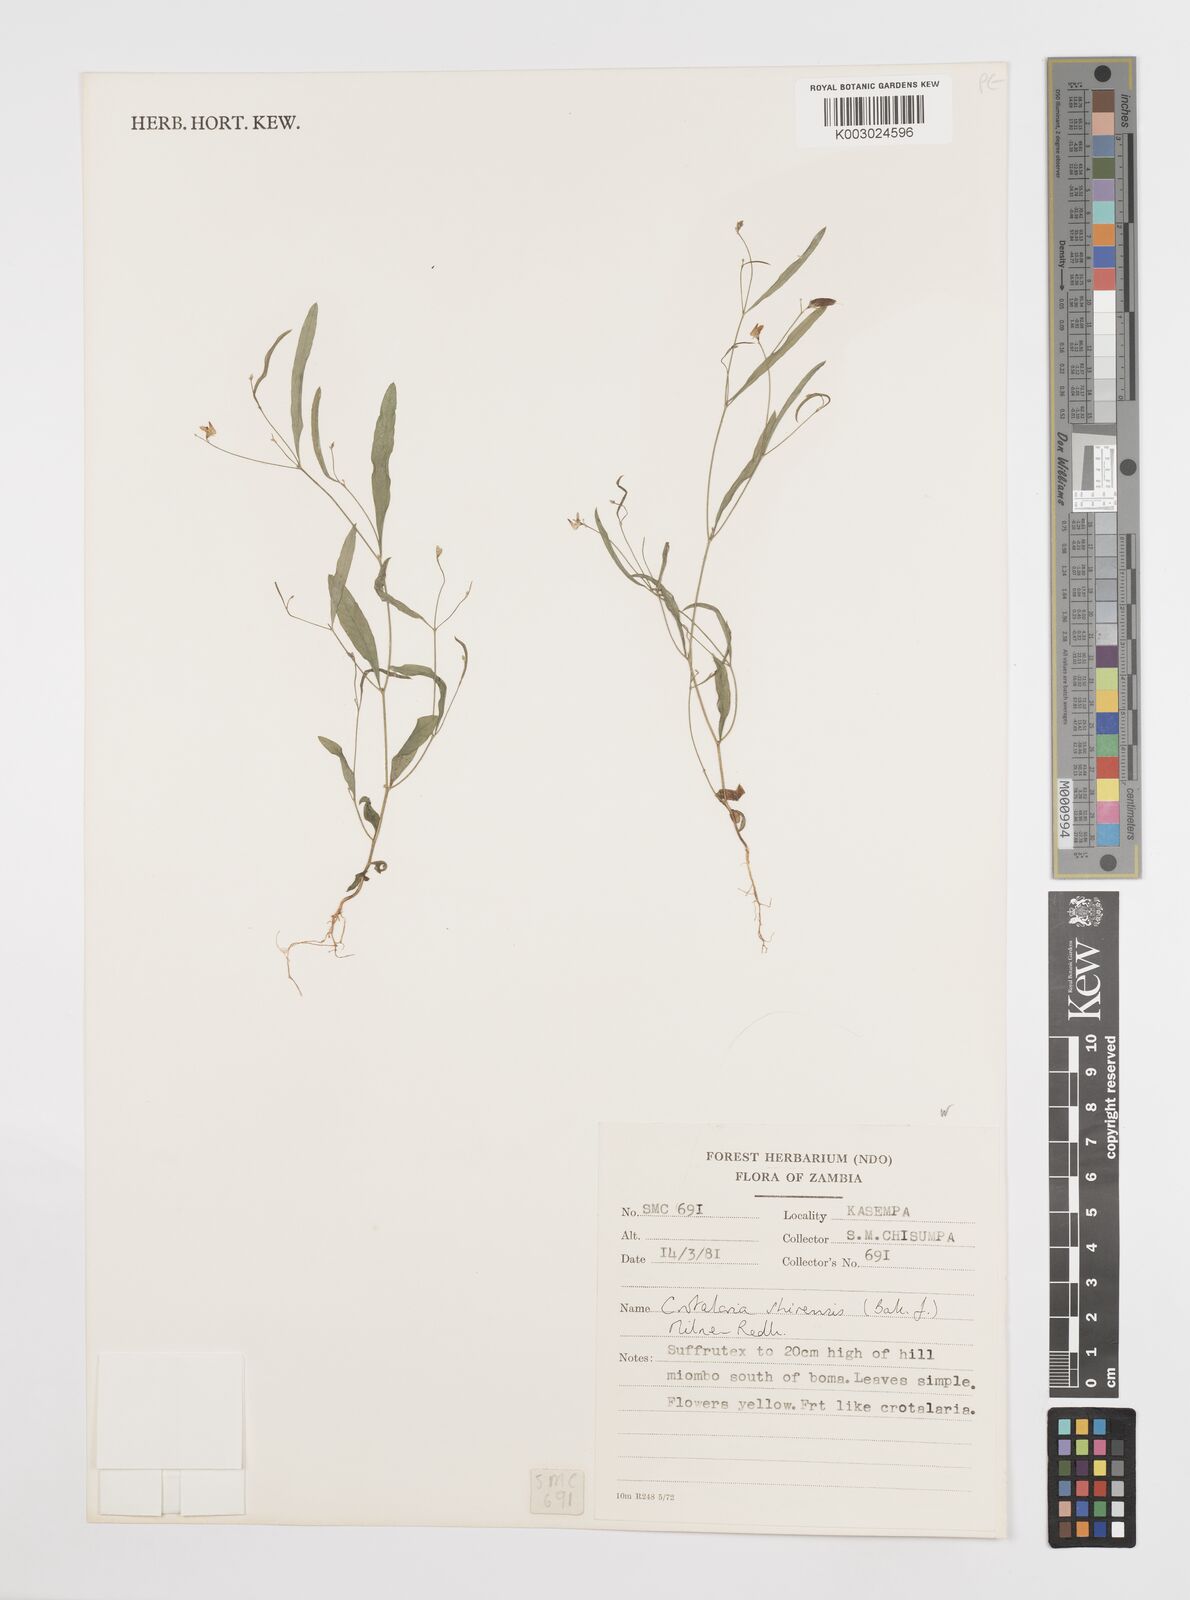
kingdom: Plantae
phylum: Tracheophyta
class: Magnoliopsida
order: Fabales
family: Fabaceae
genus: Crotalaria
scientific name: Crotalaria shirensis
